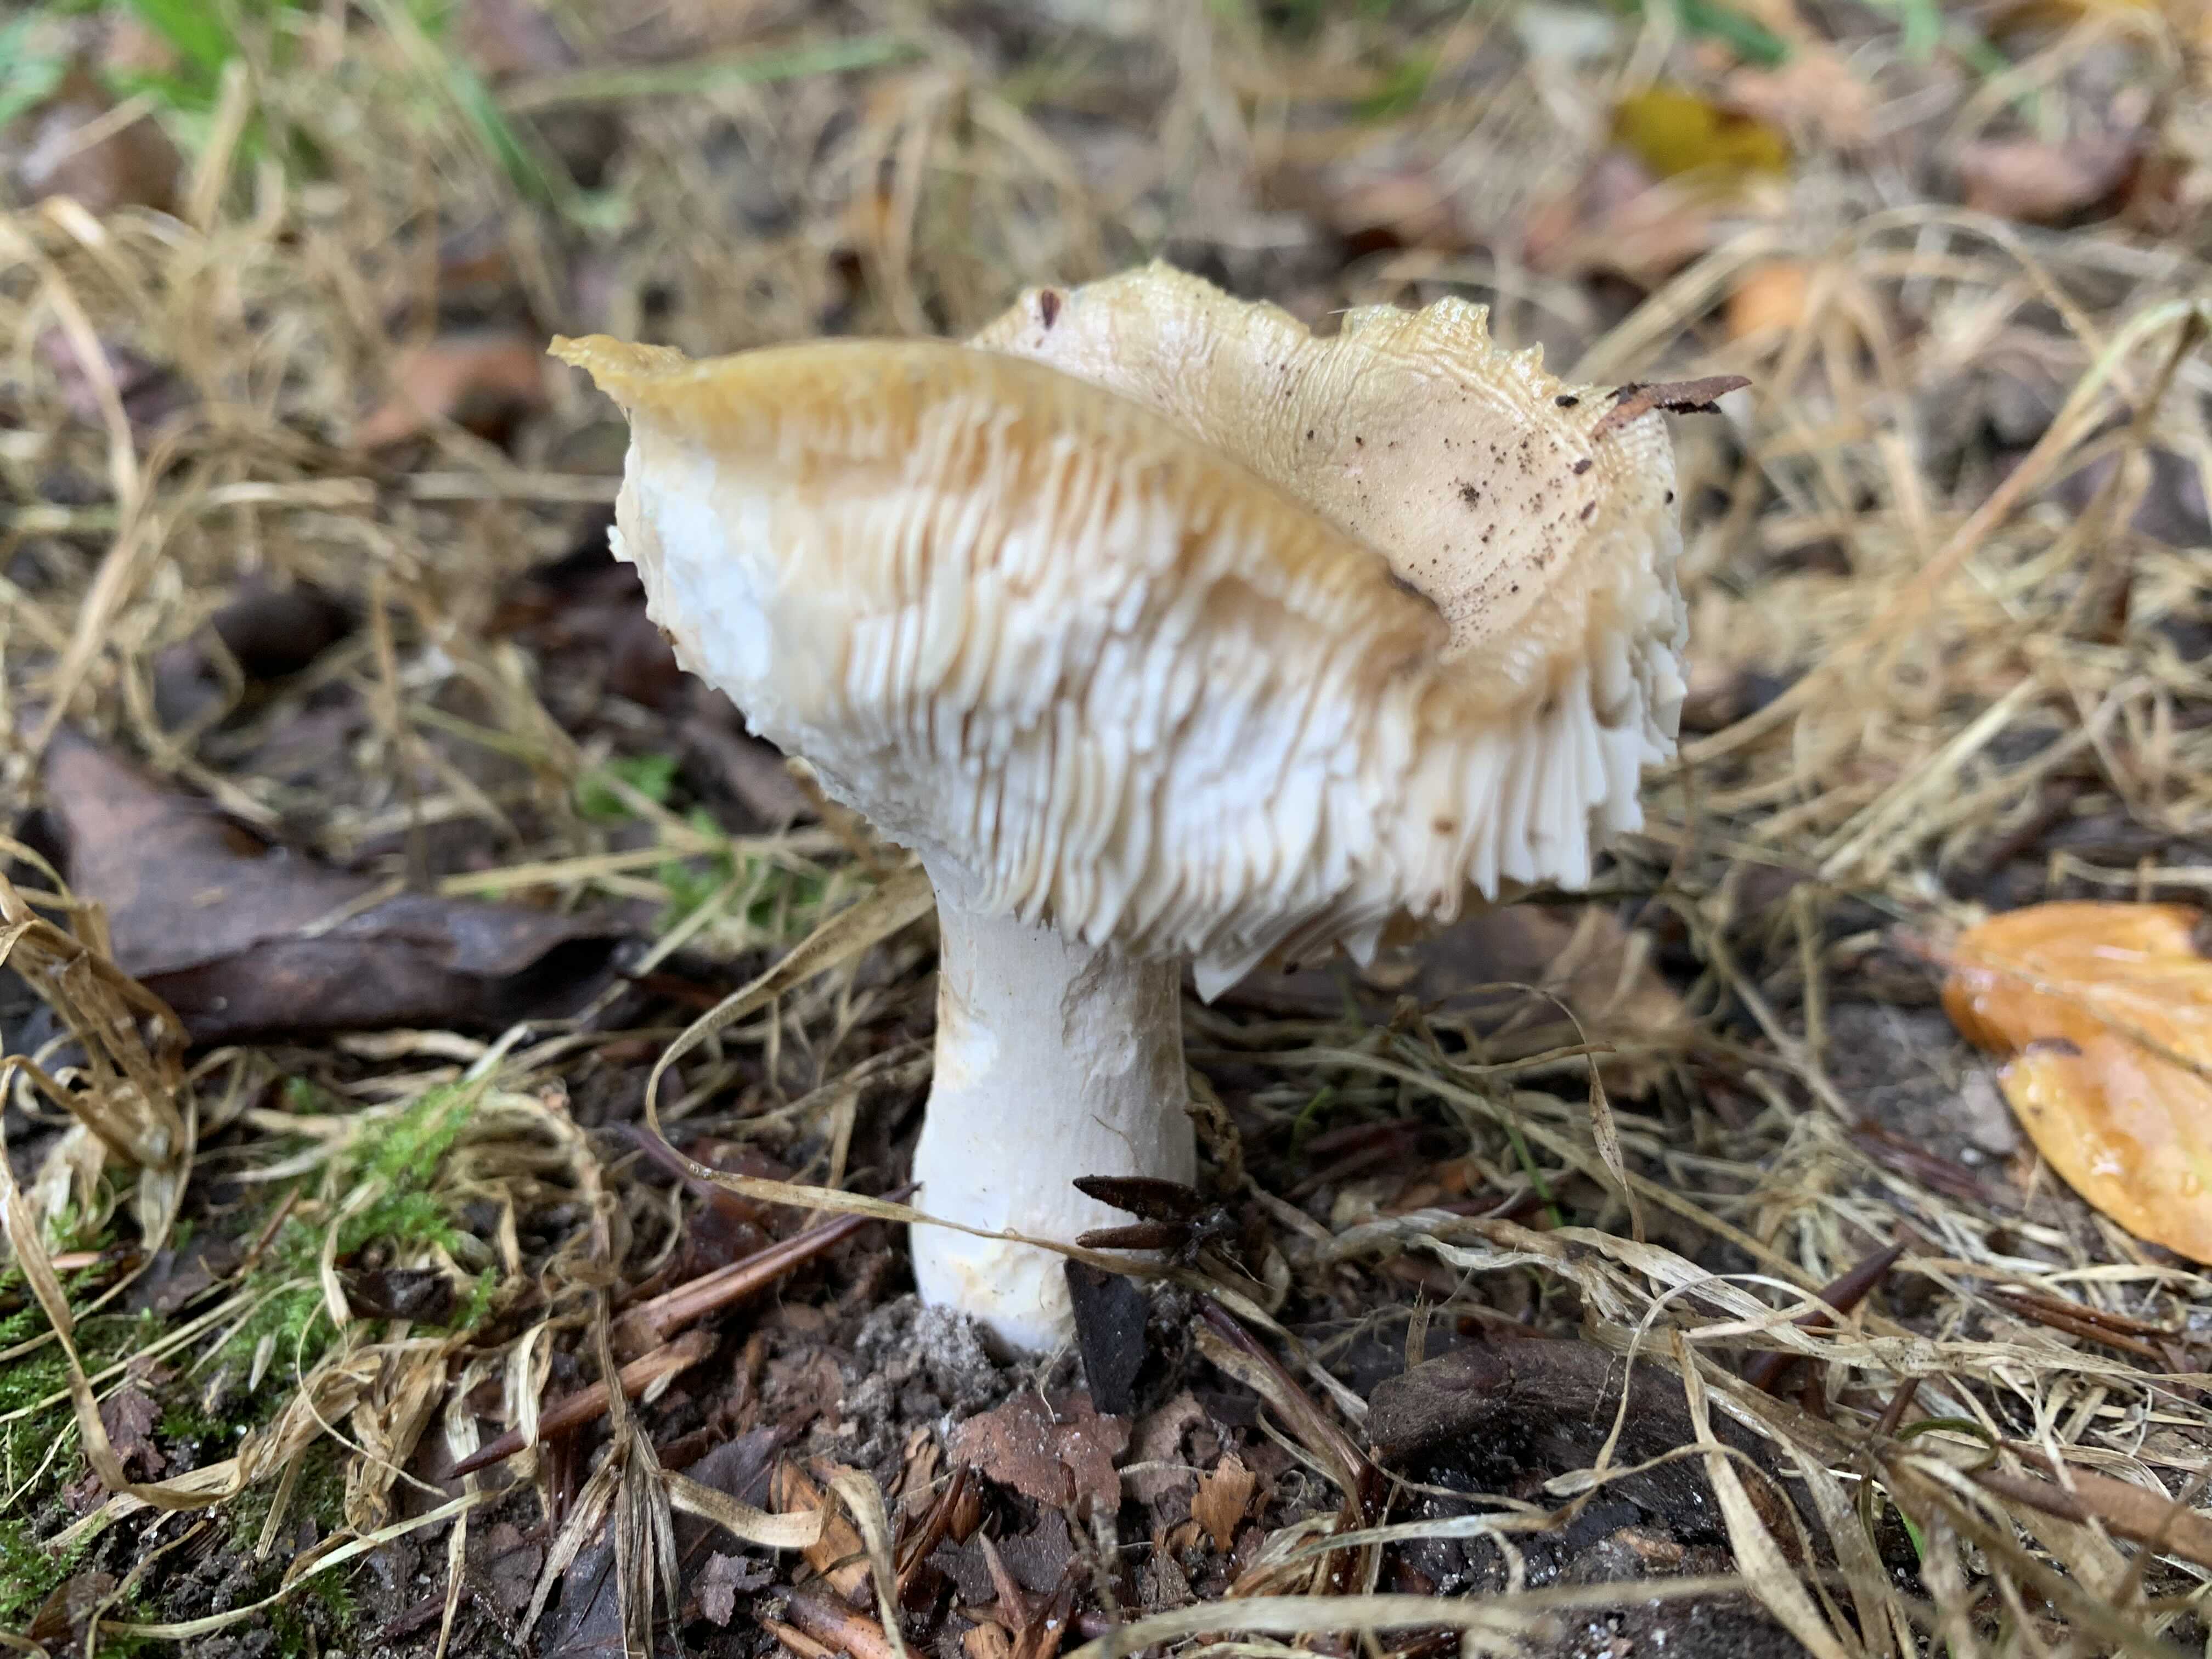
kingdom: Fungi
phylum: Basidiomycota
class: Agaricomycetes
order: Russulales
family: Russulaceae
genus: Russula
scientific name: Russula
